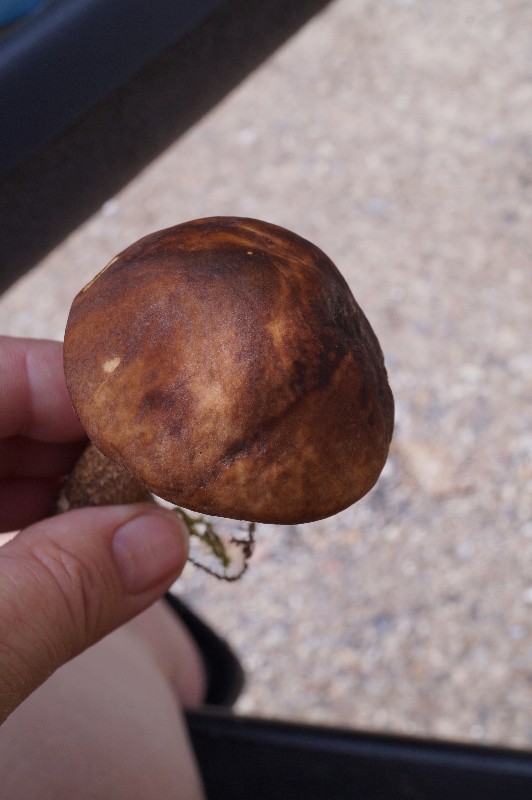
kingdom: Fungi
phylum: Basidiomycota
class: Agaricomycetes
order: Boletales
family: Boletaceae
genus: Leccinum
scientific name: Leccinum scabrum
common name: brun skælrørhat
